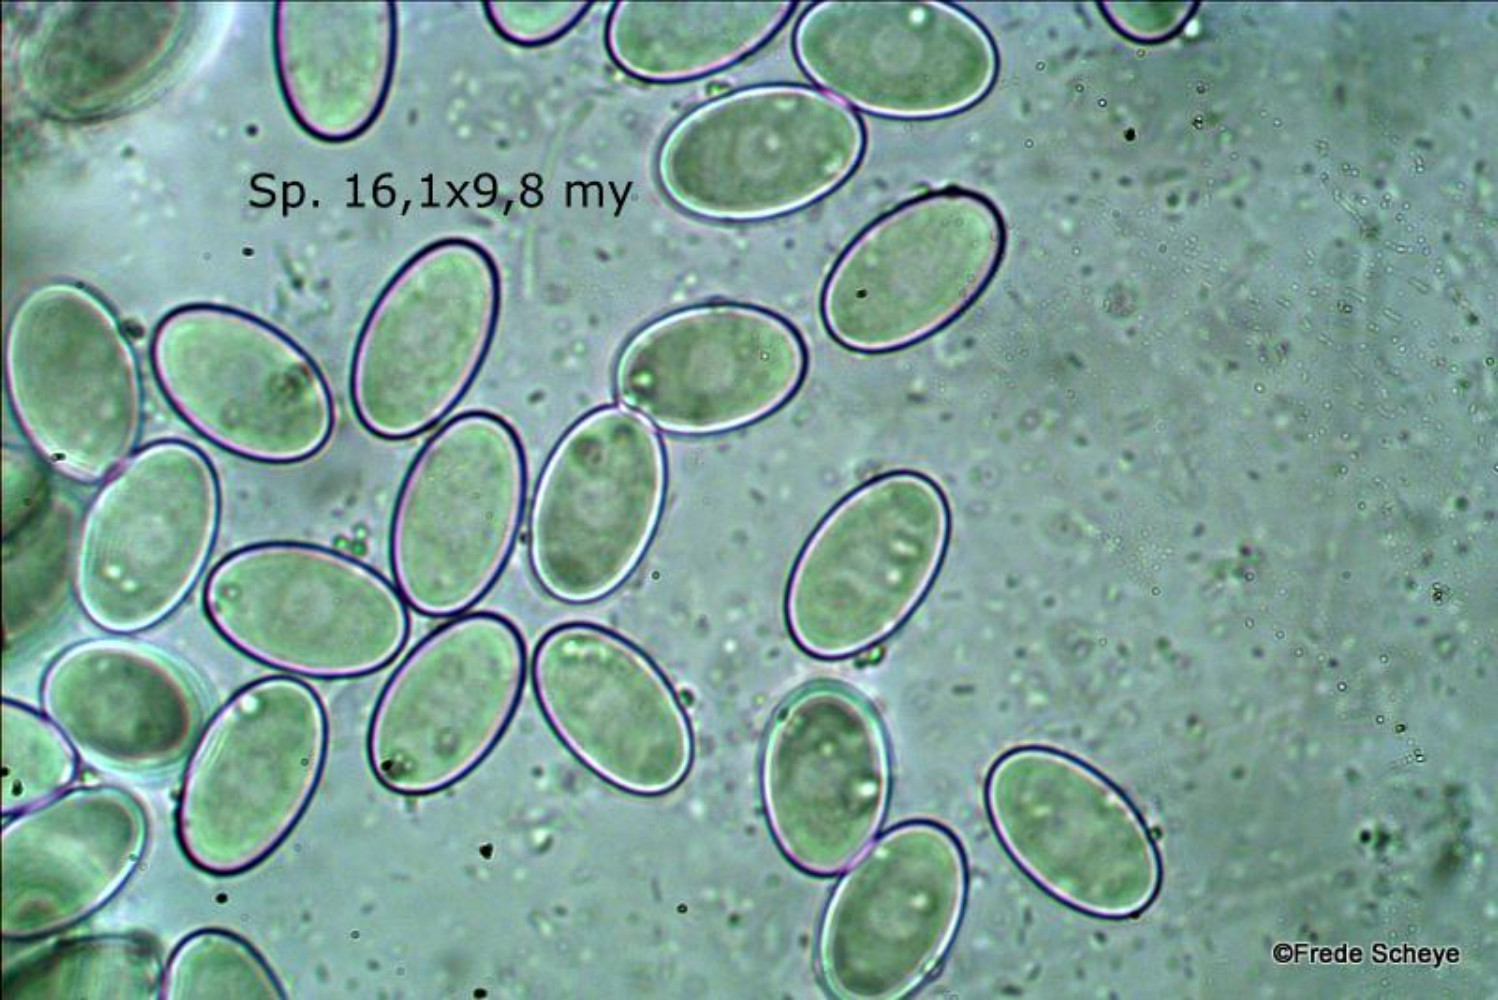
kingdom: Fungi
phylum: Ascomycota
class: Pezizomycetes
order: Pezizales
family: Pezizaceae
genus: Peziza
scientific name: Peziza varia
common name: Ved-bægersvamp
